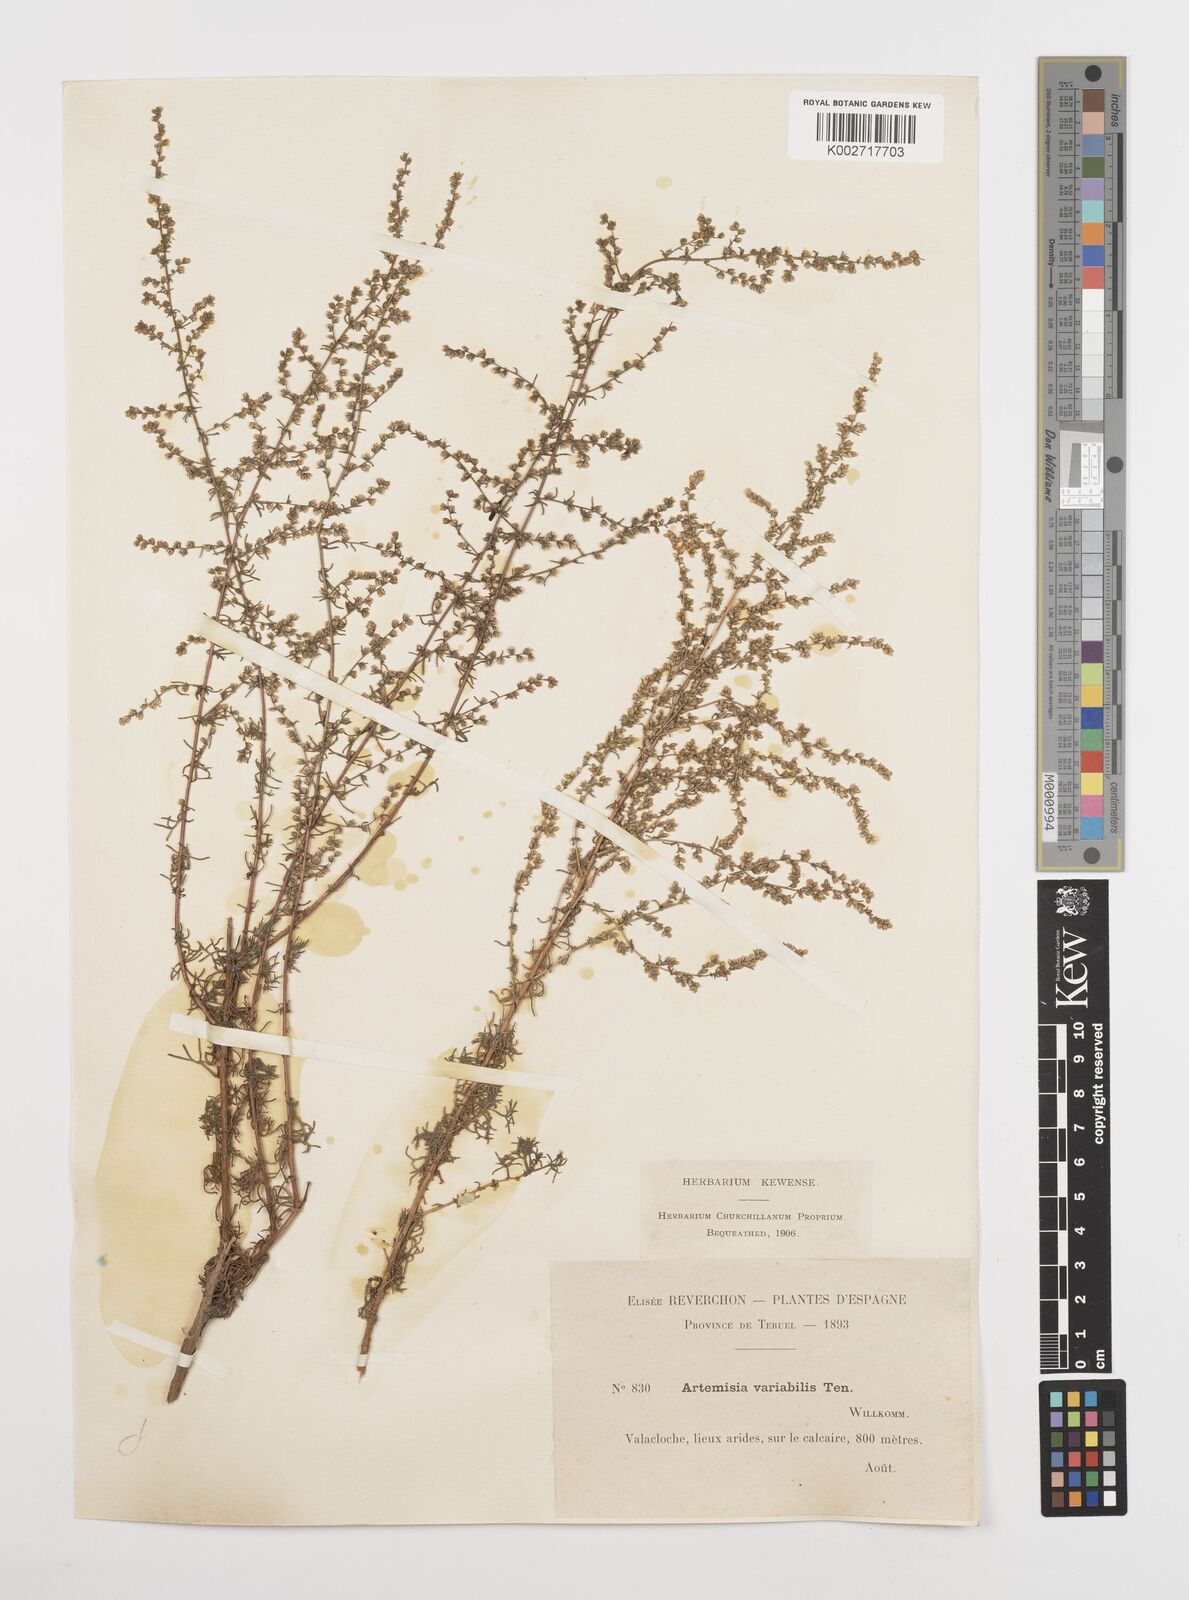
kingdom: Plantae
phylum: Tracheophyta
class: Magnoliopsida
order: Asterales
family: Asteraceae
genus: Artemisia
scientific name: Artemisia campestris
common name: Field wormwood
